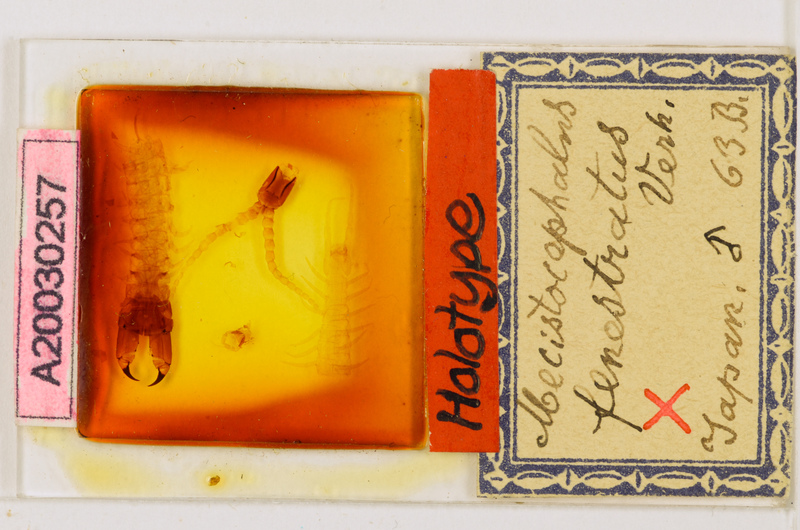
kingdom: Animalia
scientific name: Animalia
